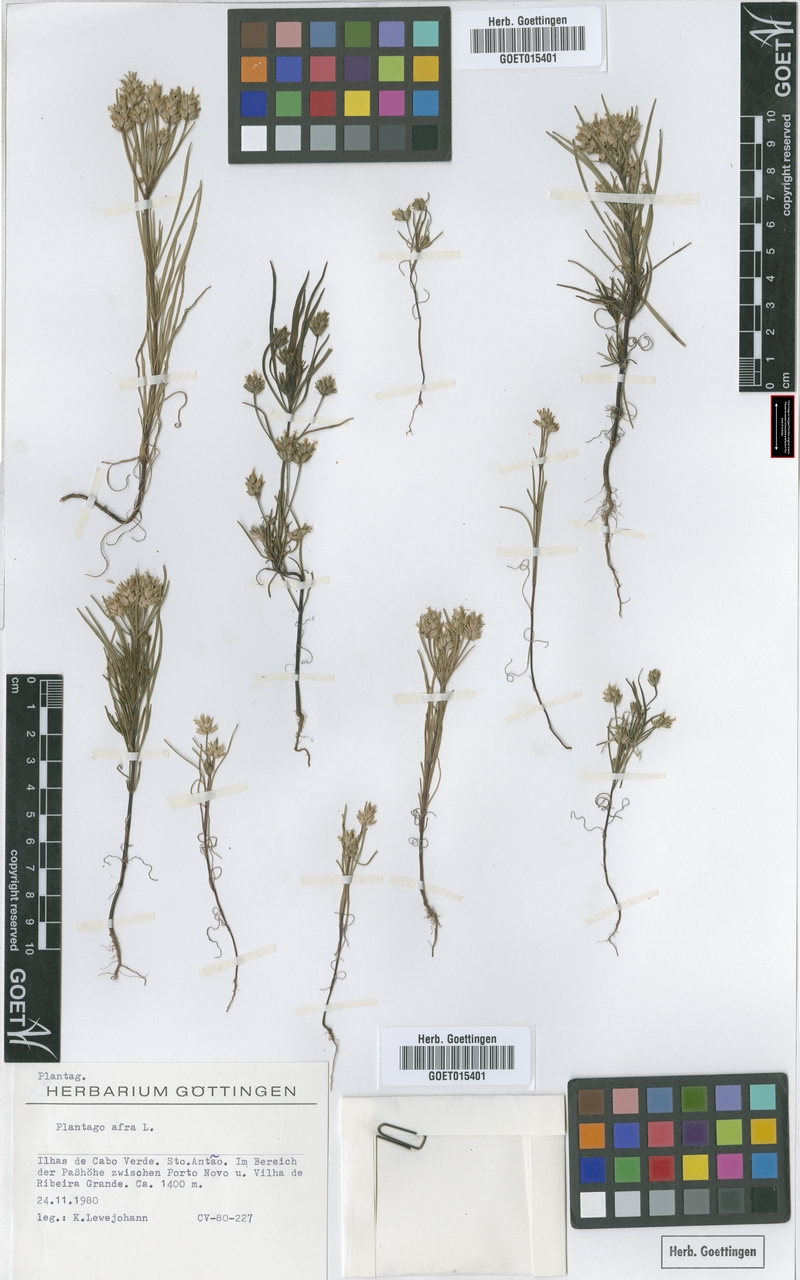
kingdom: Plantae
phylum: Tracheophyta
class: Magnoliopsida
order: Lamiales
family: Plantaginaceae
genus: Plantago
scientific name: Plantago afra
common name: Glandular plantain
